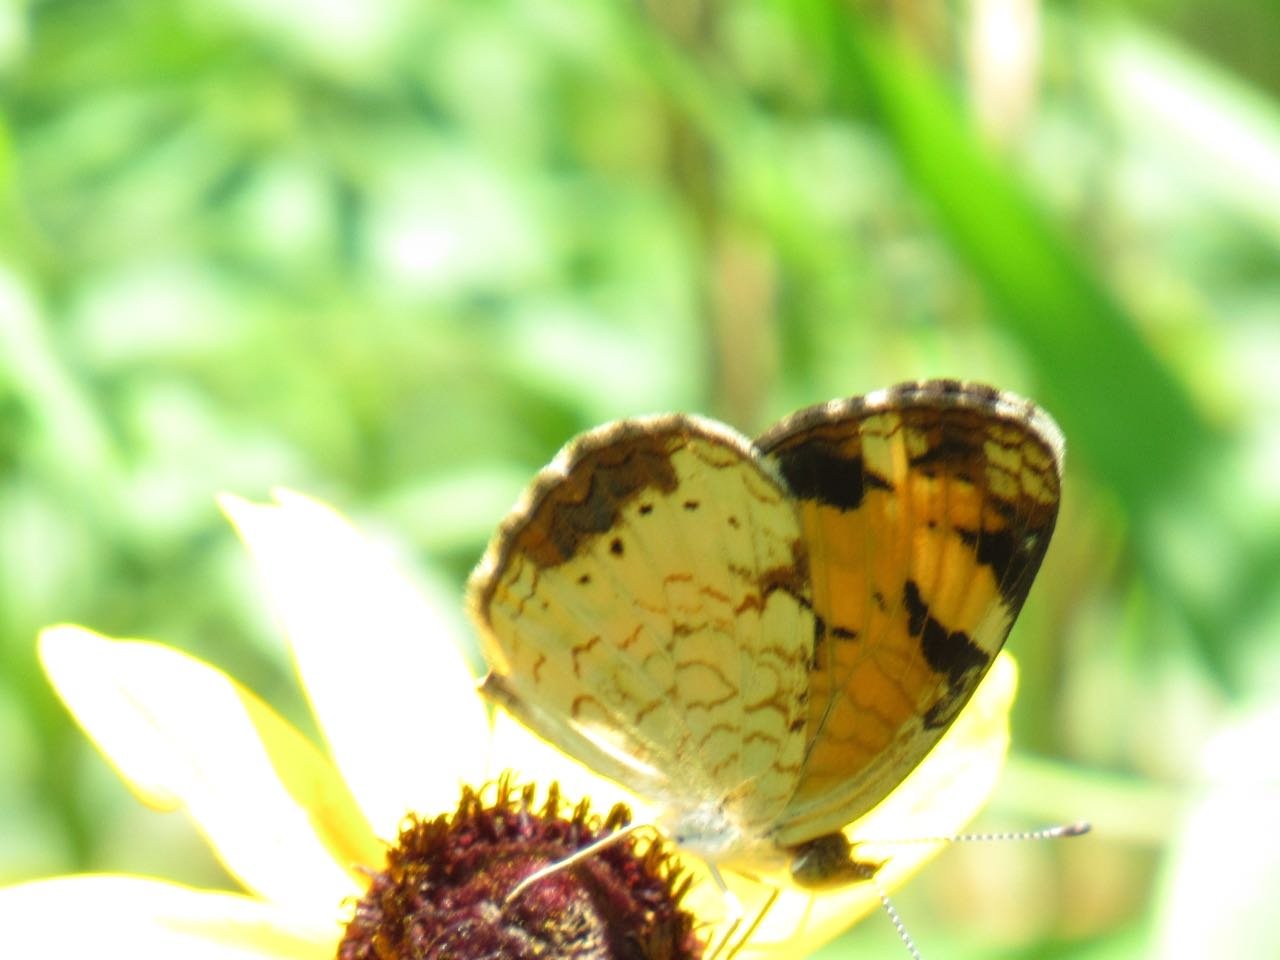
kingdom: Animalia
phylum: Arthropoda
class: Insecta
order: Lepidoptera
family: Nymphalidae
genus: Phyciodes
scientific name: Phyciodes tharos
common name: Pearl Crescent
